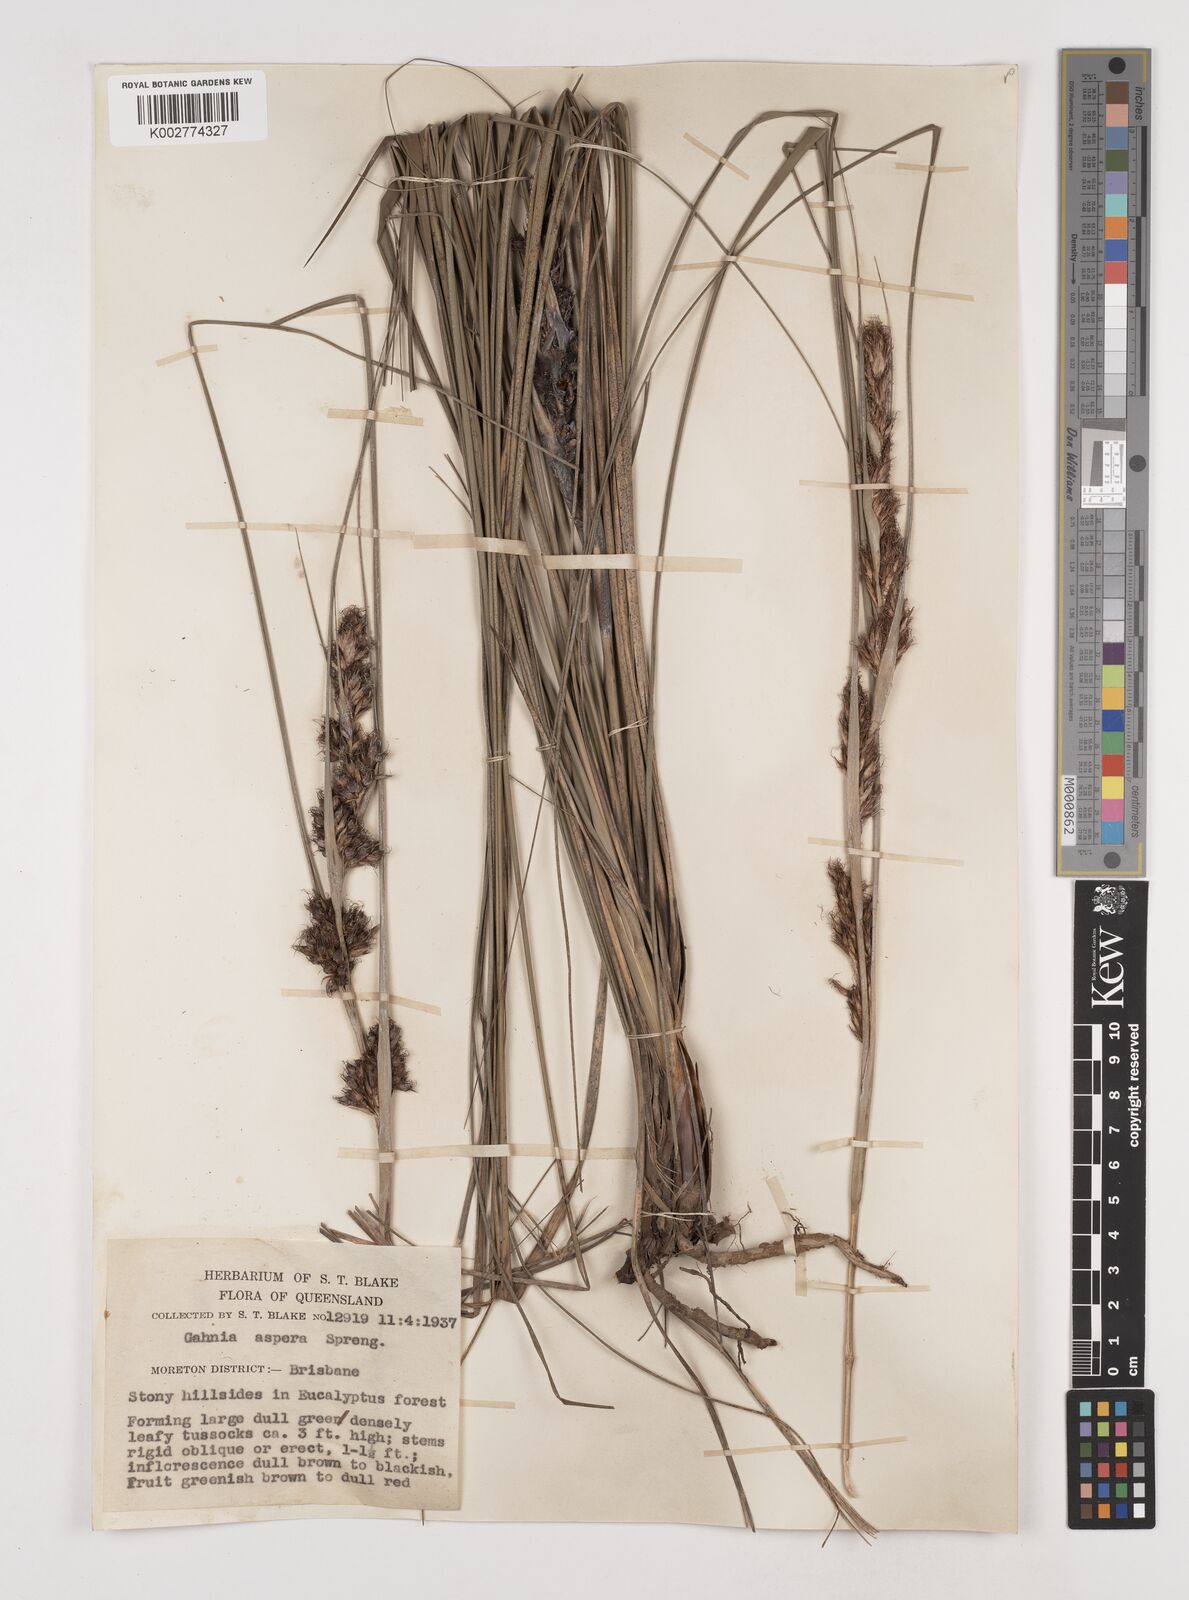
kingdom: Plantae
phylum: Tracheophyta
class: Liliopsida
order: Poales
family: Cyperaceae
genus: Gahnia
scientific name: Gahnia aspera
